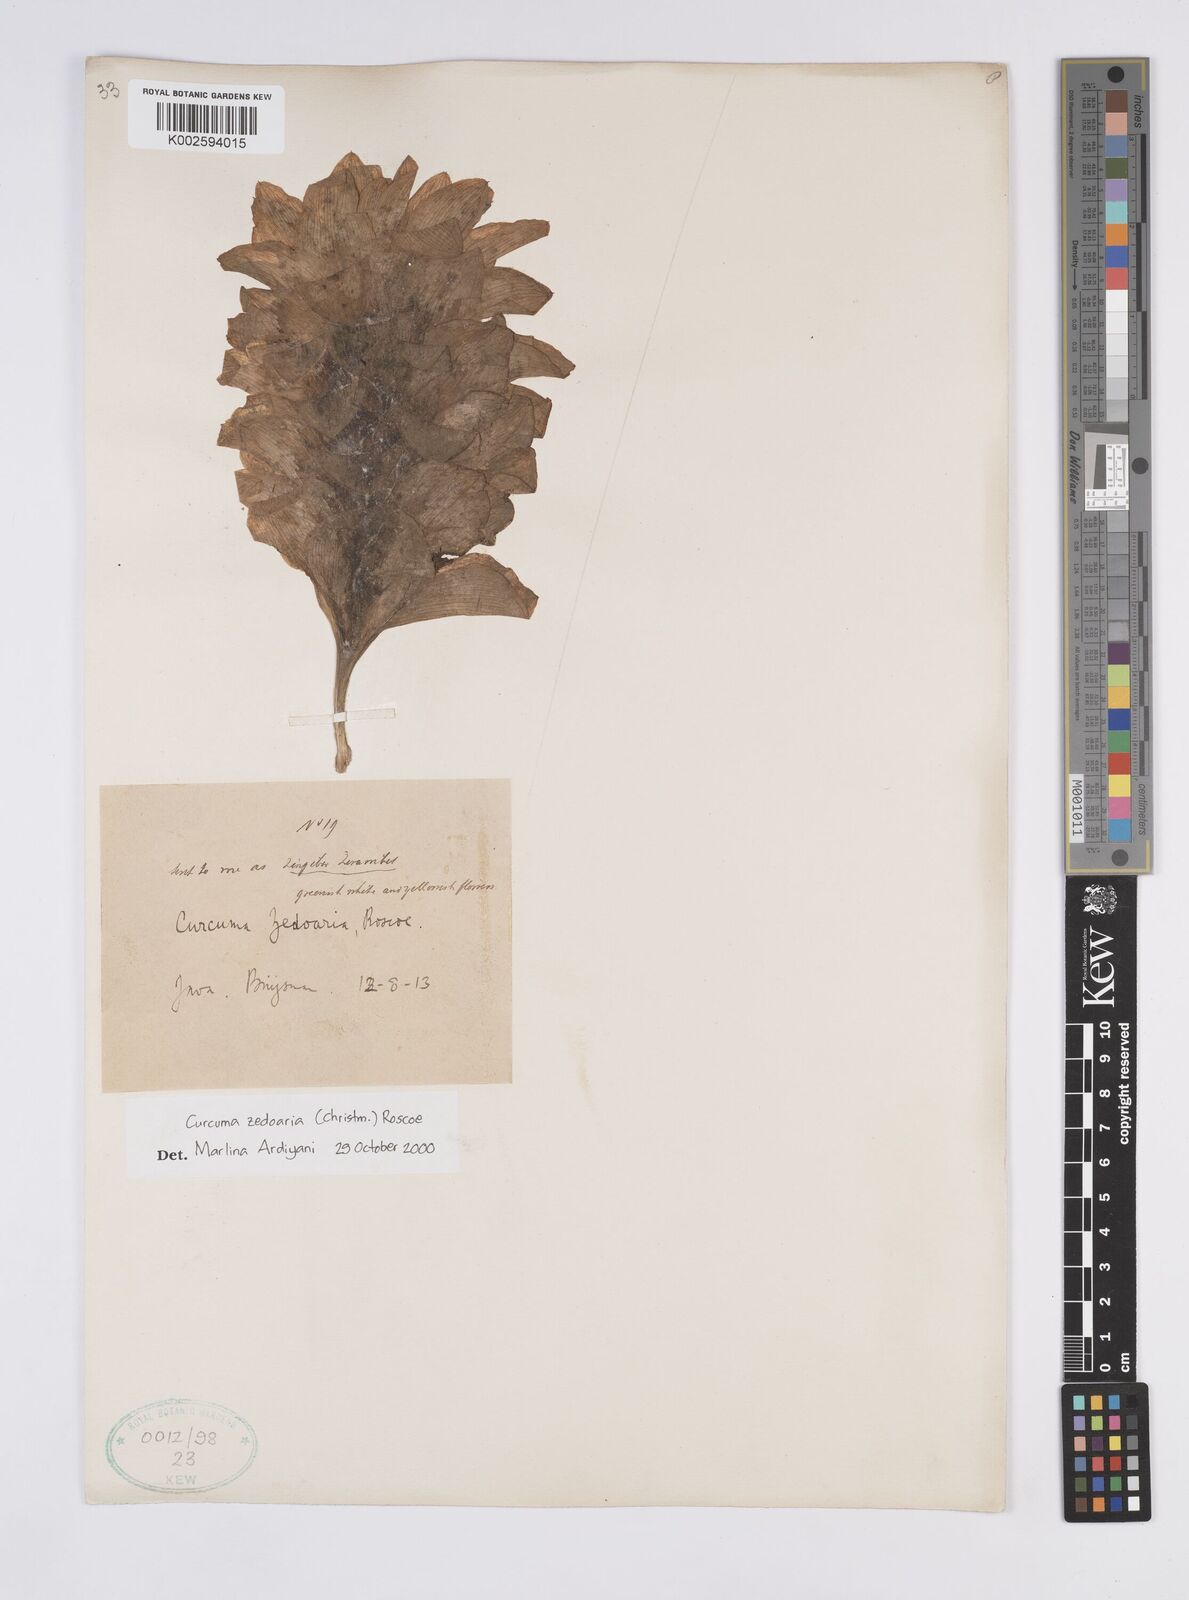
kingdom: Plantae
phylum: Tracheophyta
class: Liliopsida
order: Zingiberales
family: Zingiberaceae
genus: Curcuma
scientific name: Curcuma zedoaria
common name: Zedoary
